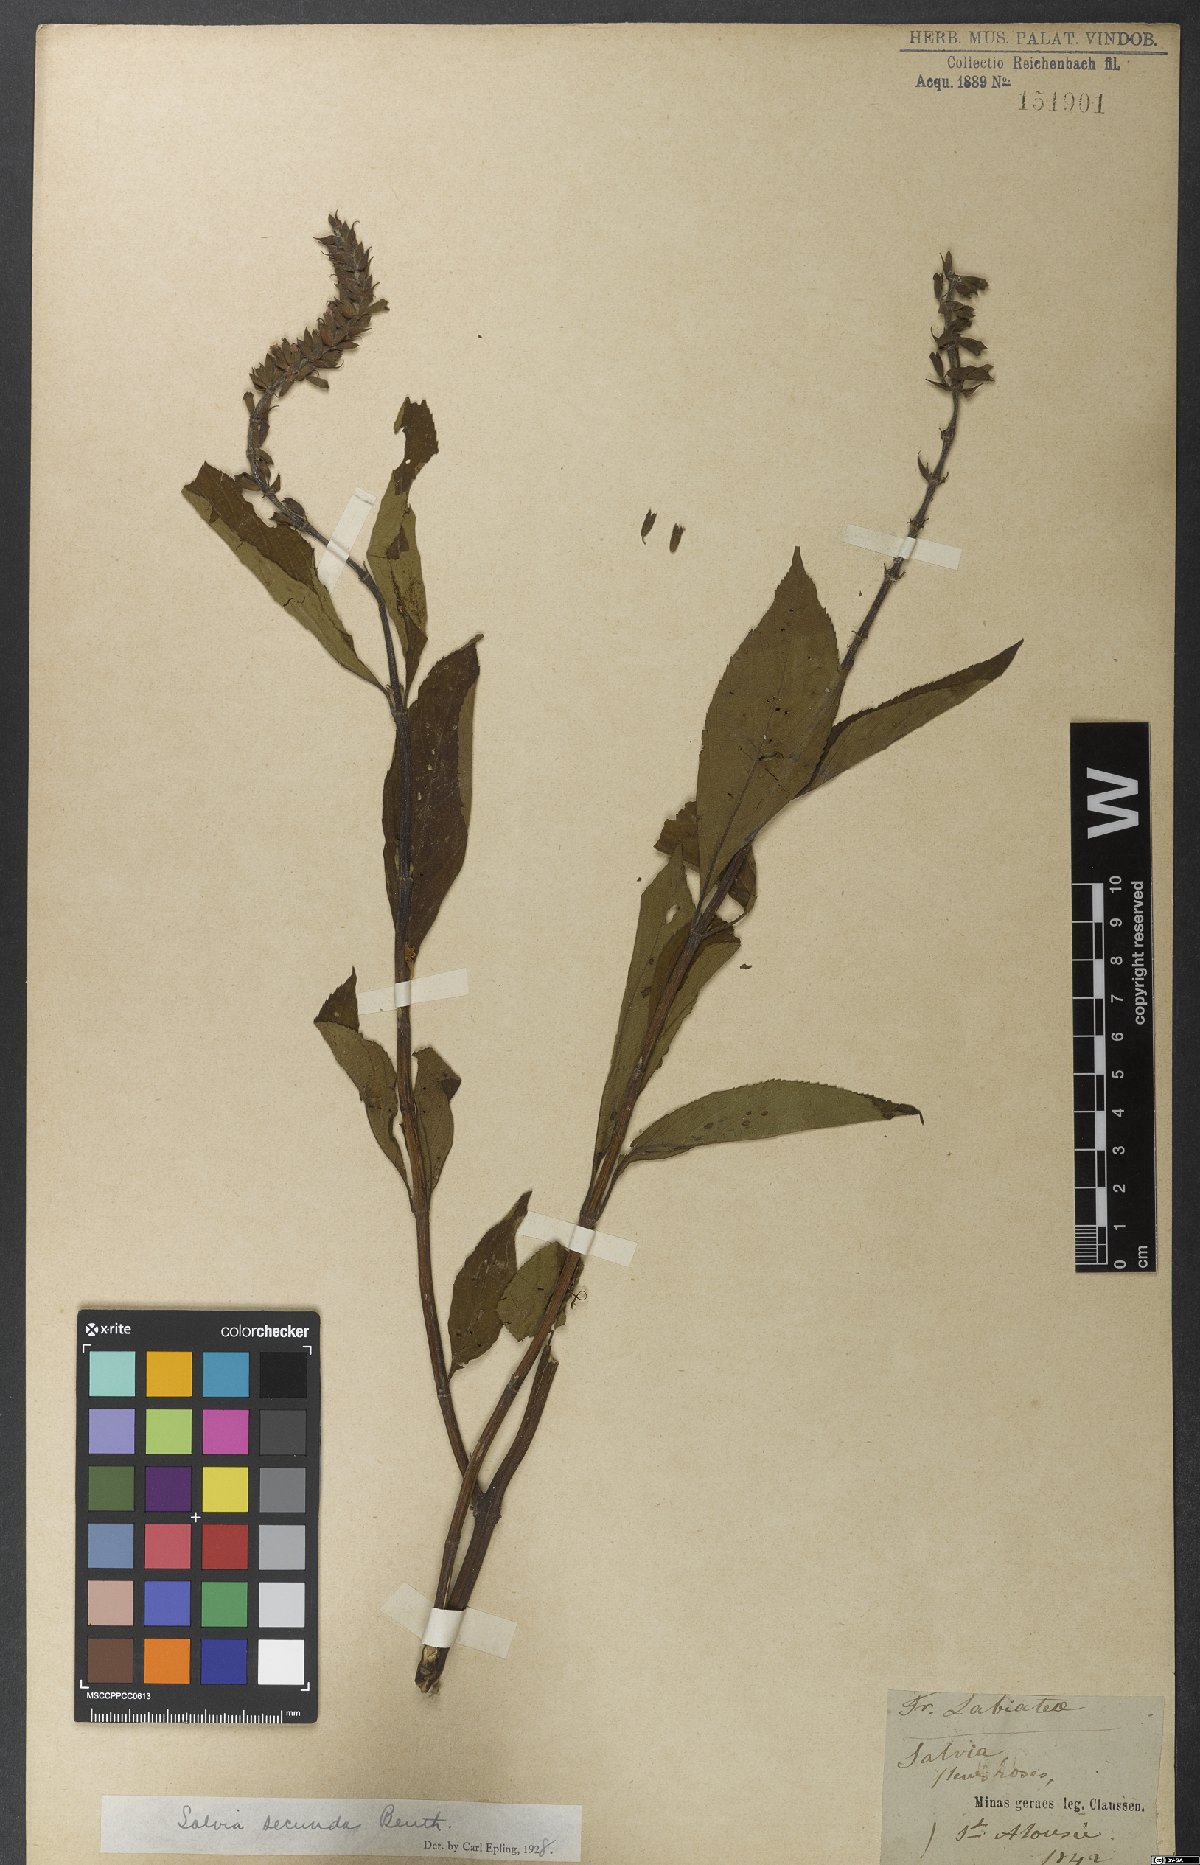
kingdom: Plantae
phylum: Tracheophyta
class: Magnoliopsida
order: Lamiales
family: Lamiaceae
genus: Salvia
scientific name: Salvia secunda
